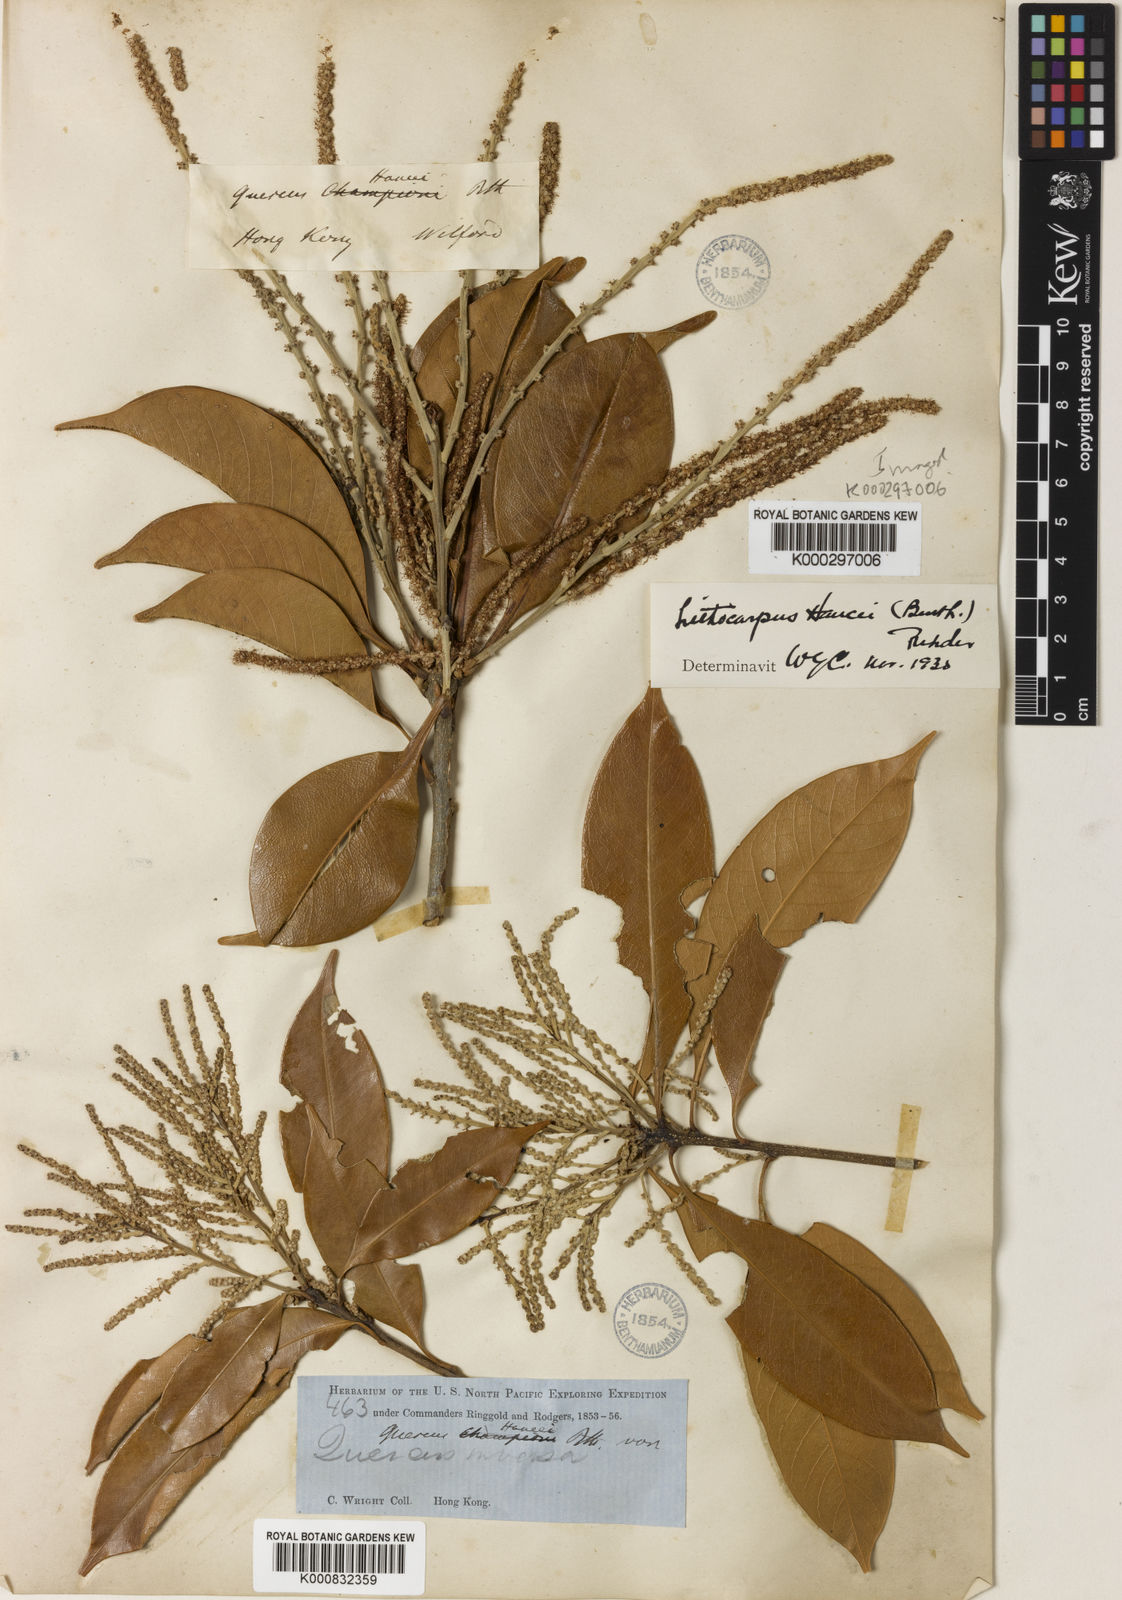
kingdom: Plantae
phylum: Tracheophyta
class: Magnoliopsida
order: Fagales
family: Fagaceae
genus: Lithocarpus
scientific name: Lithocarpus hancei
